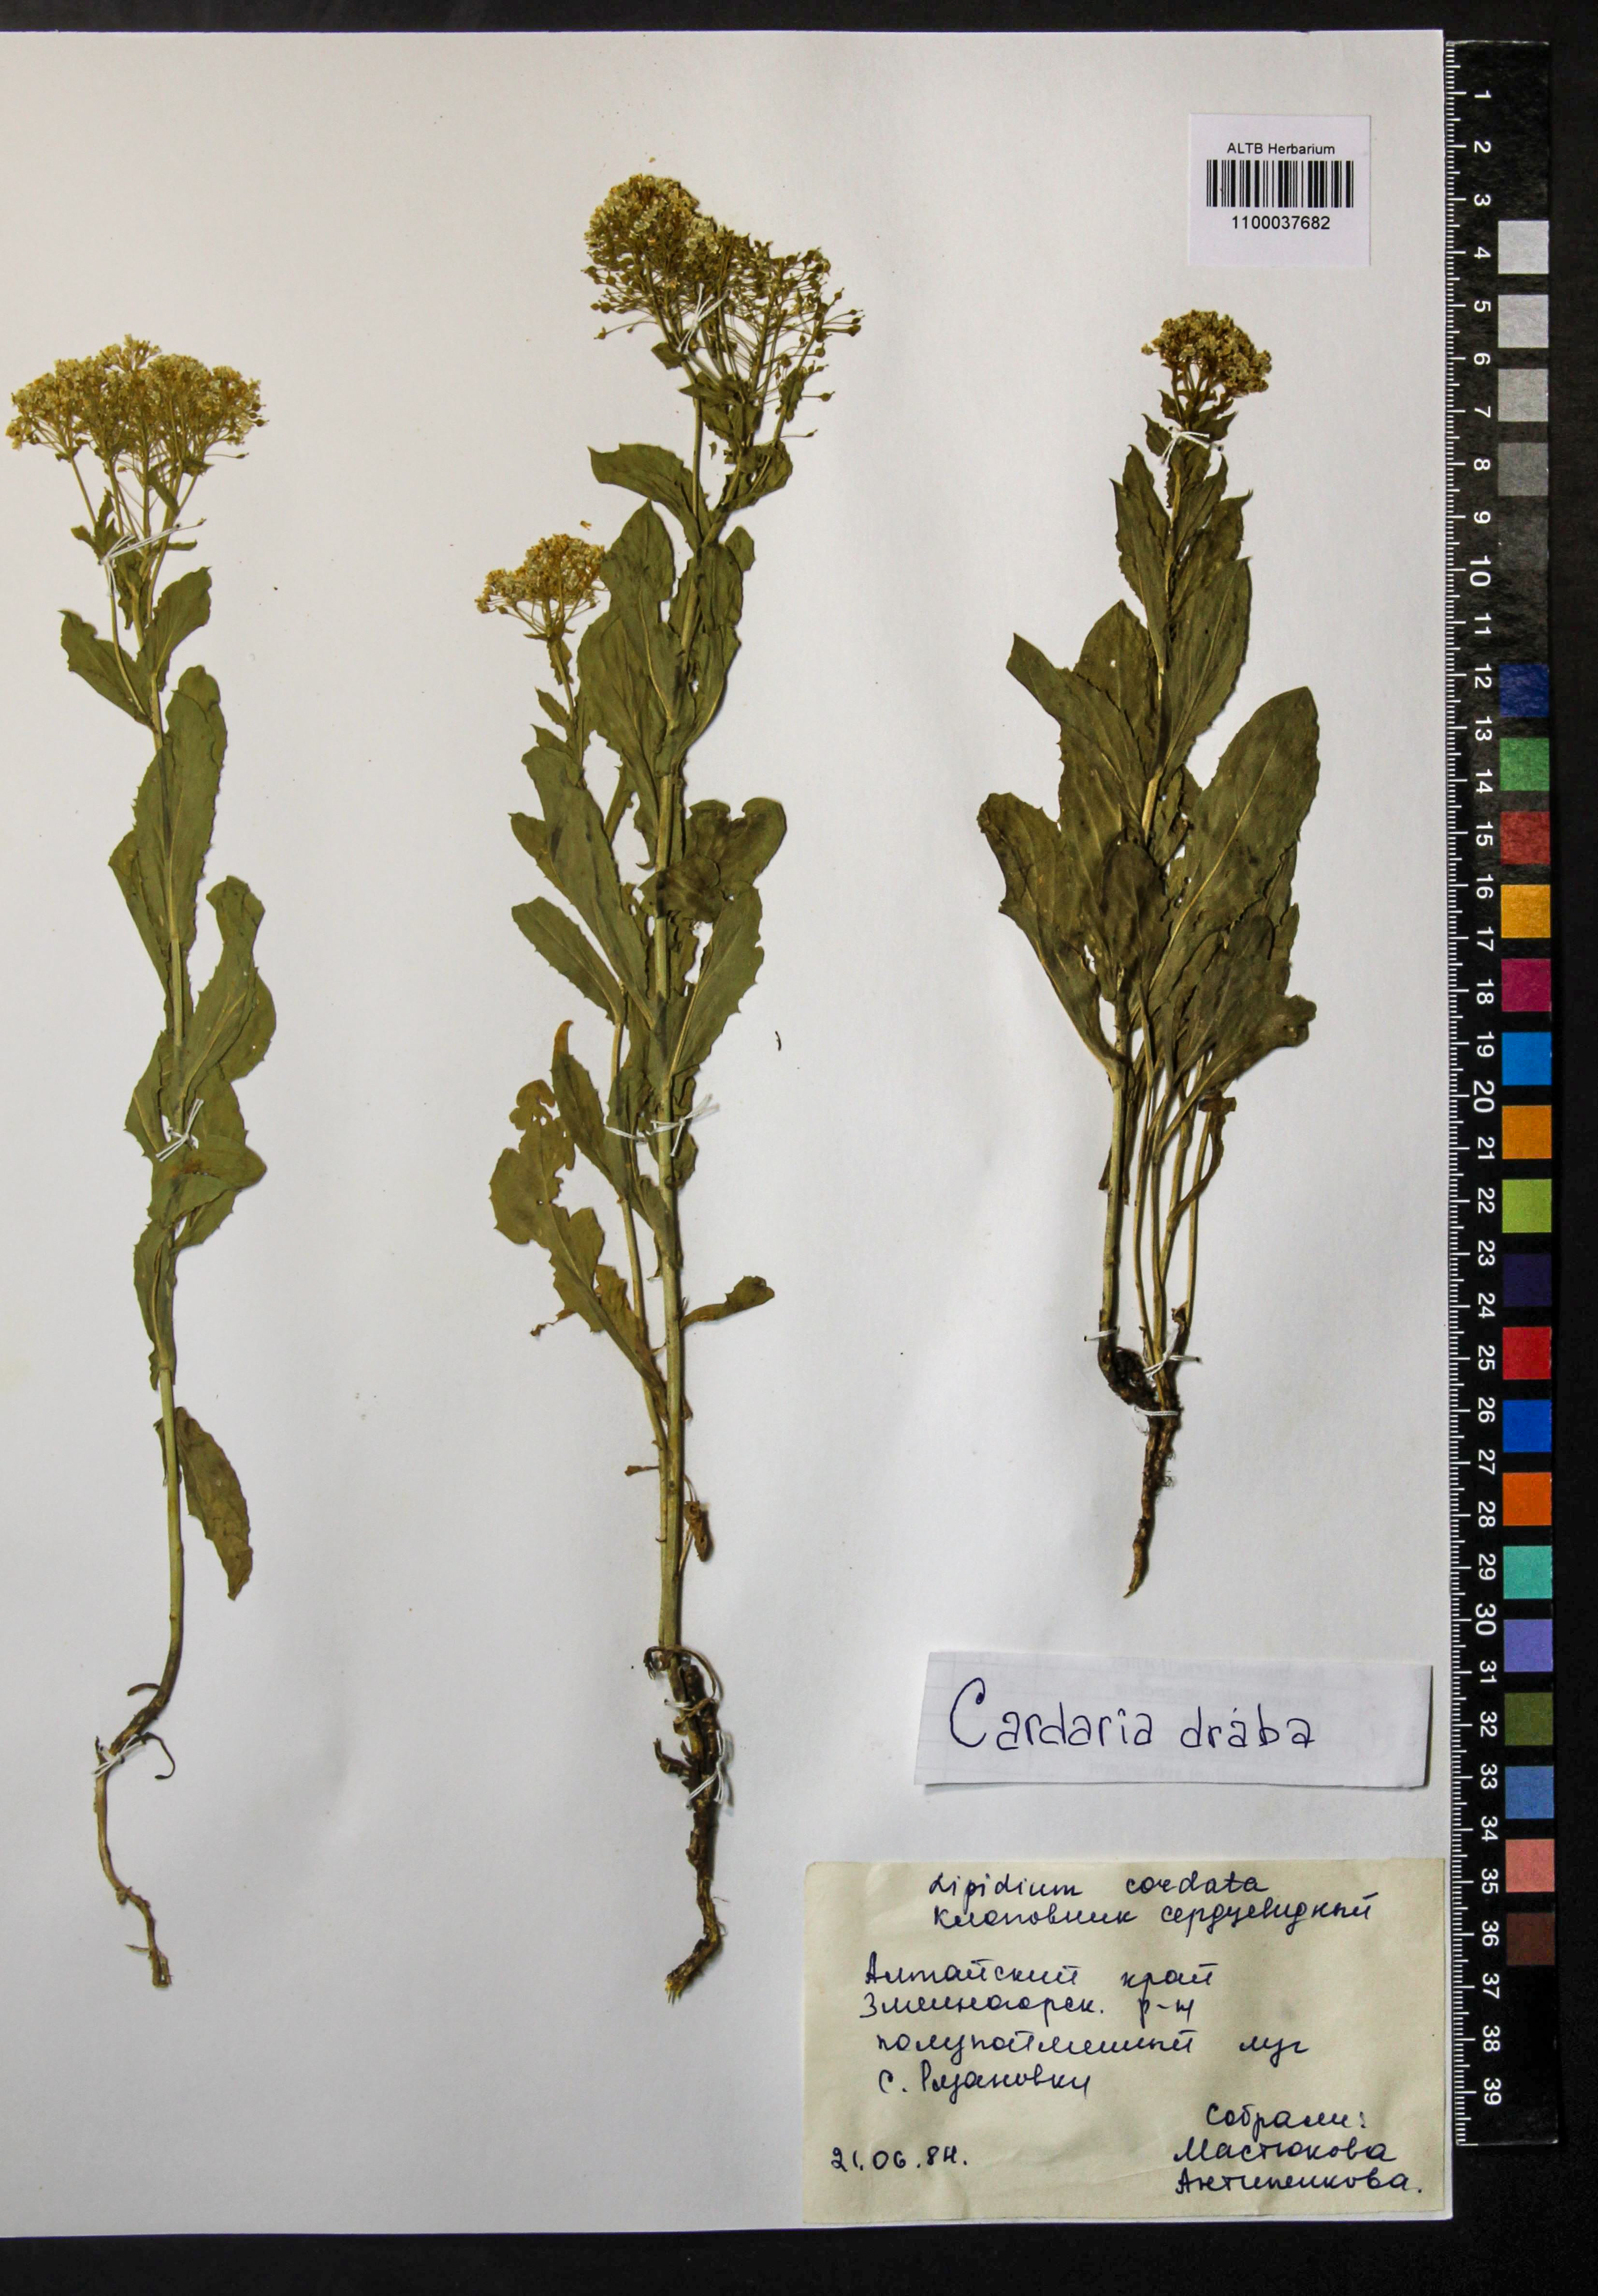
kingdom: Plantae
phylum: Tracheophyta
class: Magnoliopsida
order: Brassicales
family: Brassicaceae
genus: Lepidium
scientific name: Lepidium draba
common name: Hoary cress
